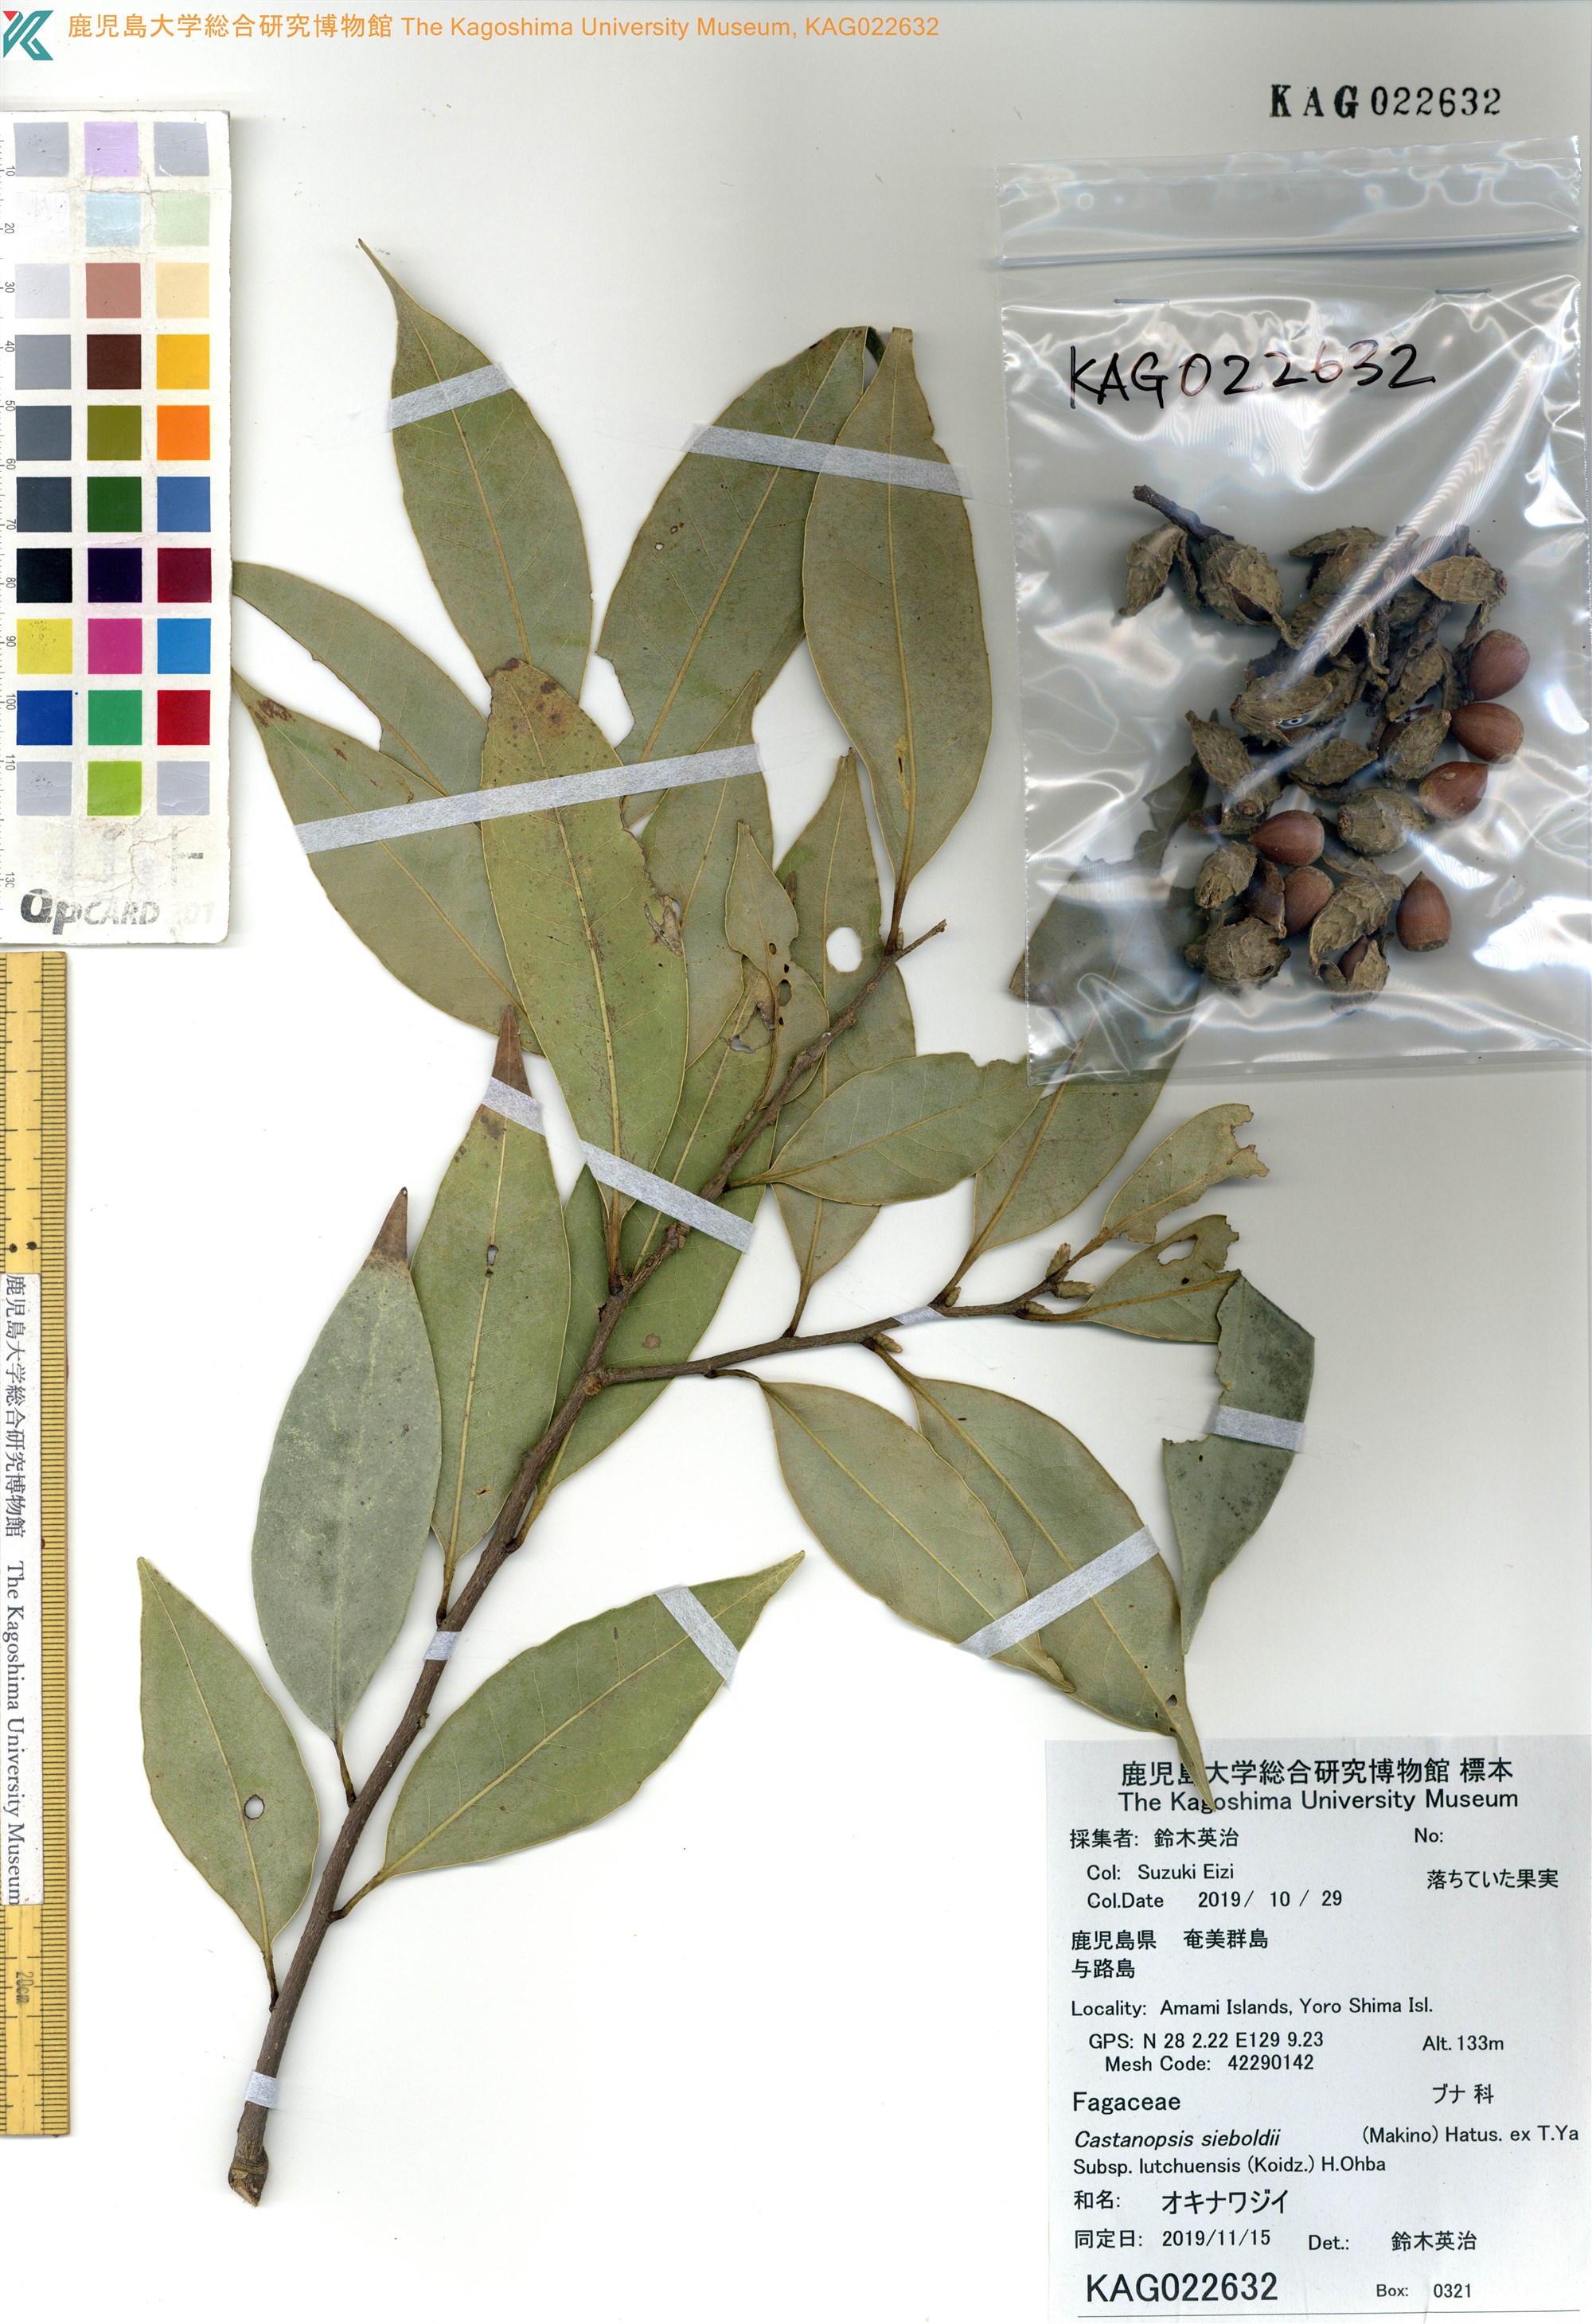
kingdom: Plantae
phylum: Tracheophyta
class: Magnoliopsida
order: Fagales
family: Fagaceae
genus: Castanopsis
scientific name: Castanopsis sieboldii
